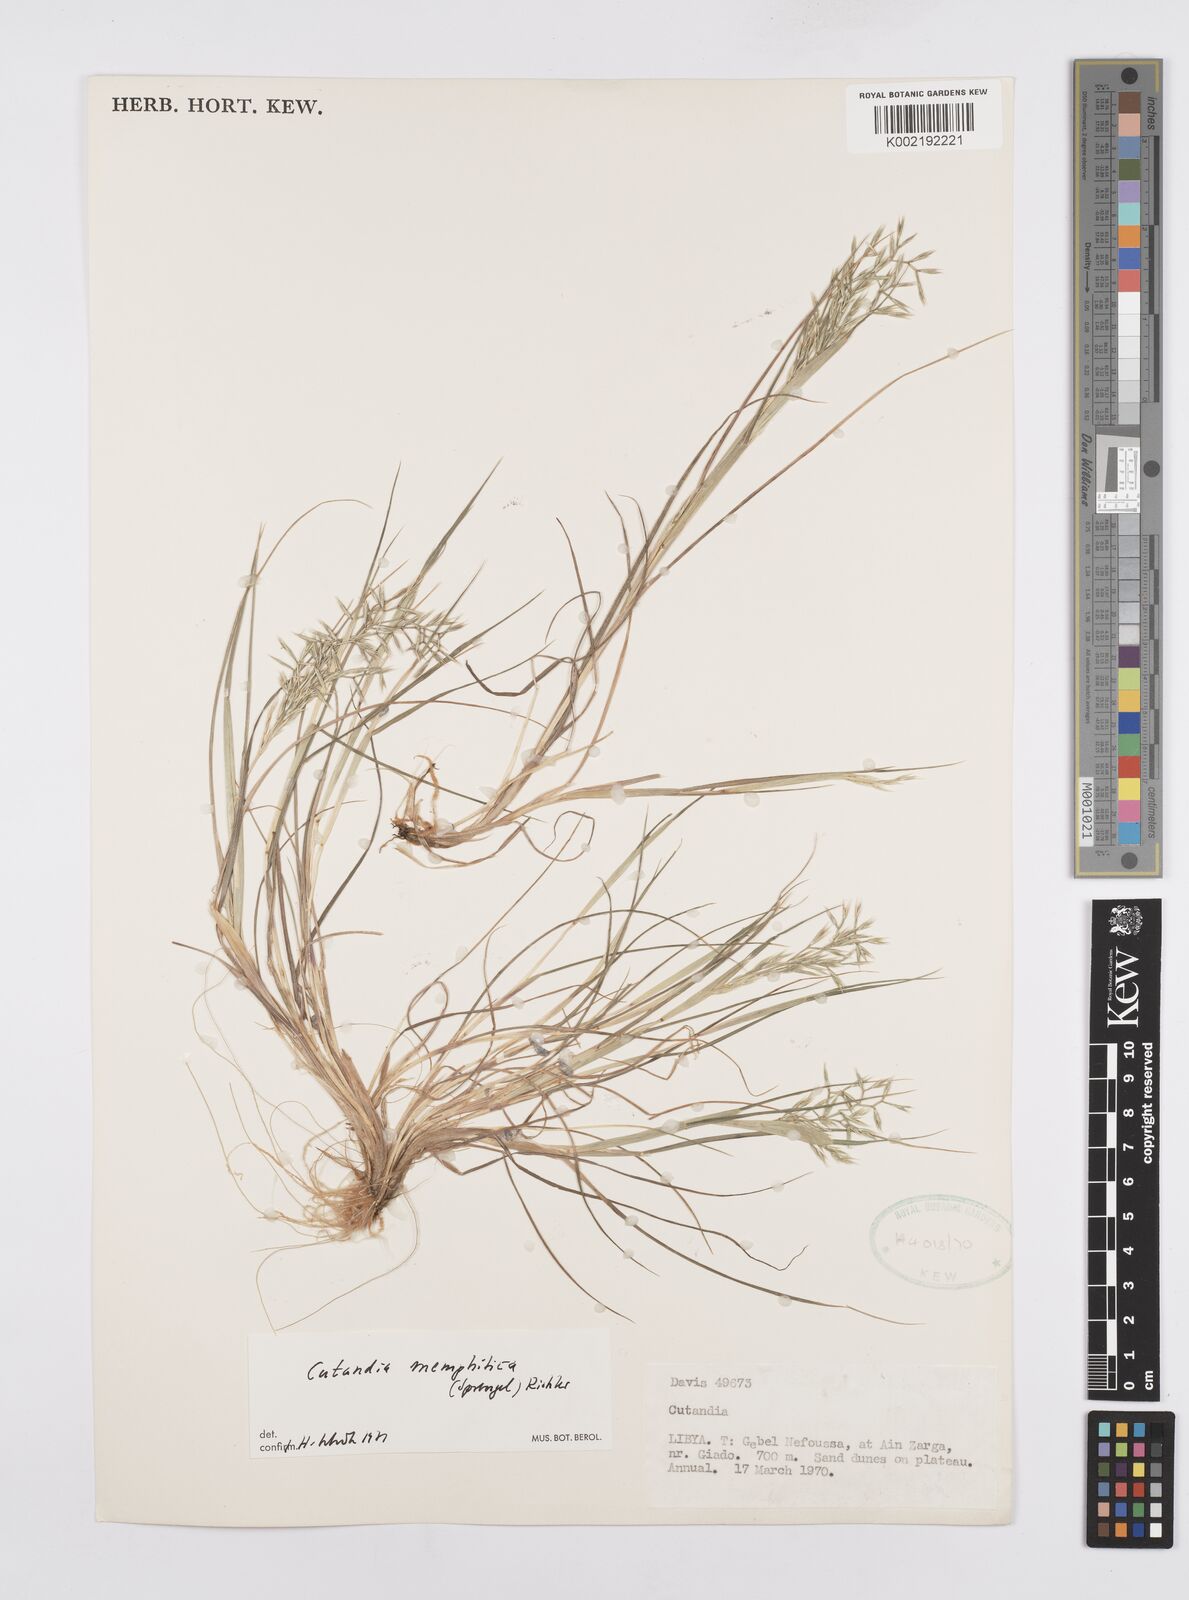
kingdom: Plantae
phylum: Tracheophyta
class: Liliopsida
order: Poales
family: Poaceae
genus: Cutandia
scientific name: Cutandia memphitica
